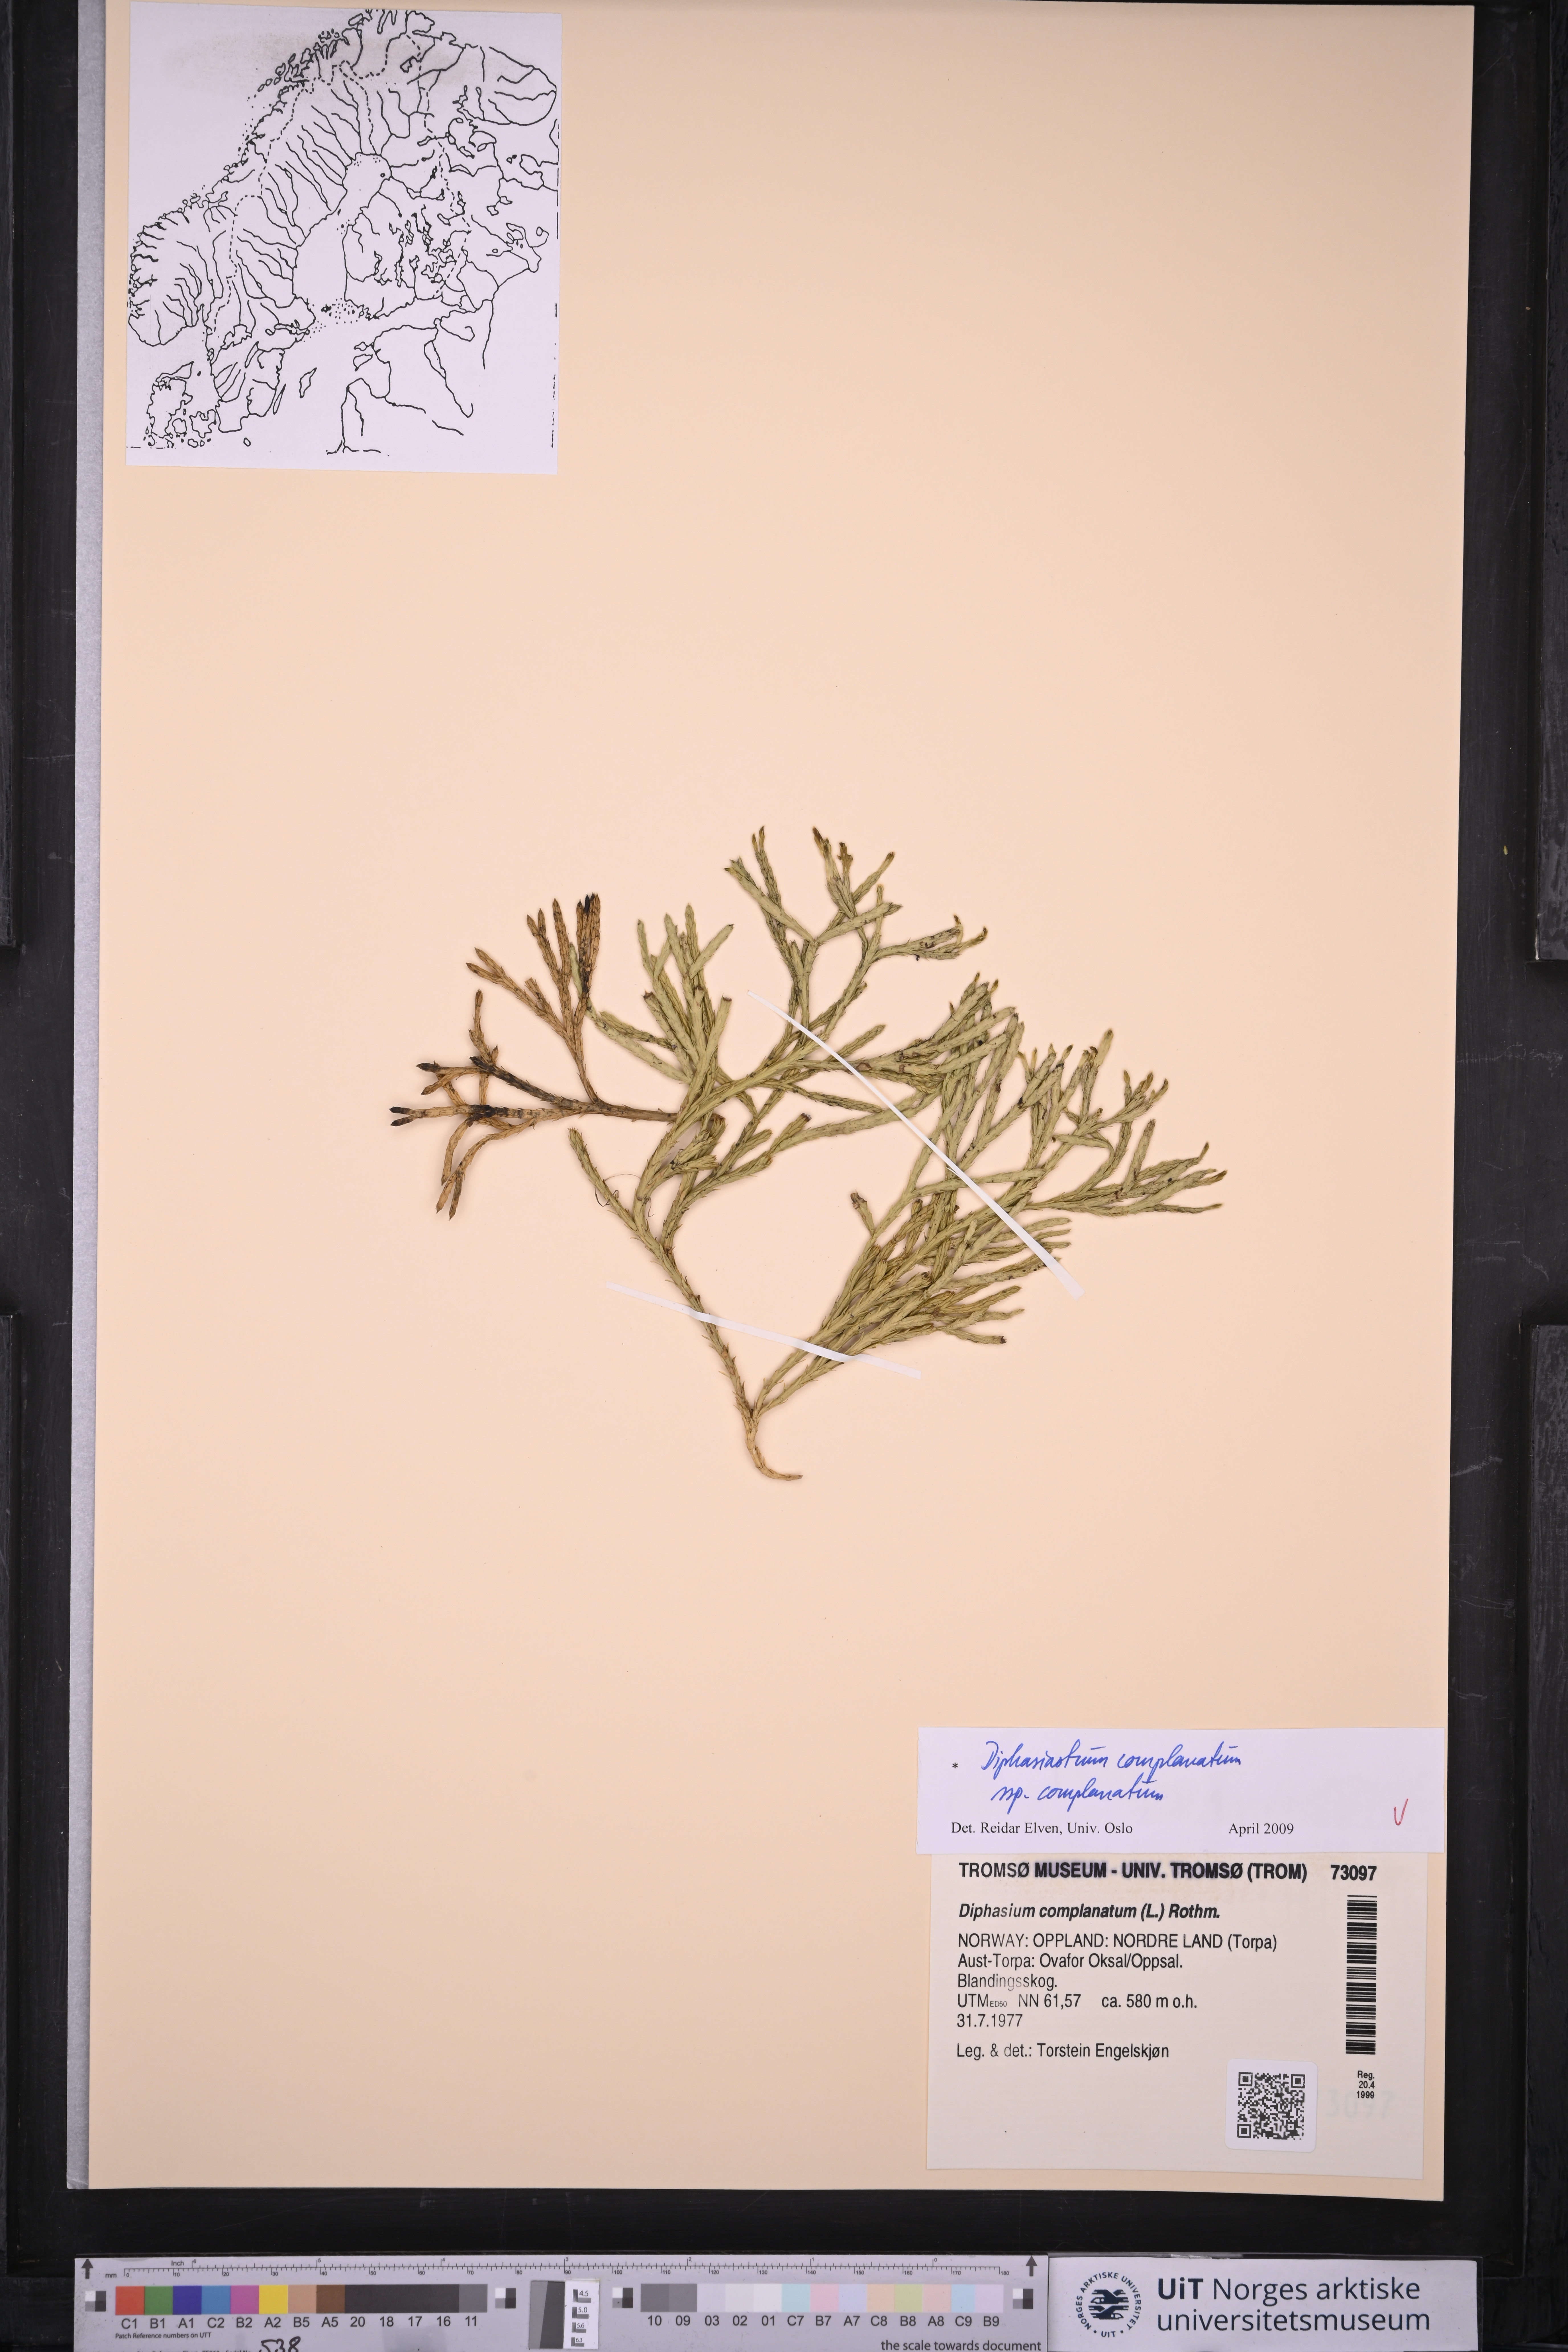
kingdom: Plantae
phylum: Tracheophyta
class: Lycopodiopsida
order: Lycopodiales
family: Lycopodiaceae
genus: Diphasiastrum
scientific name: Diphasiastrum complanatum
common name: Northern running-pine
